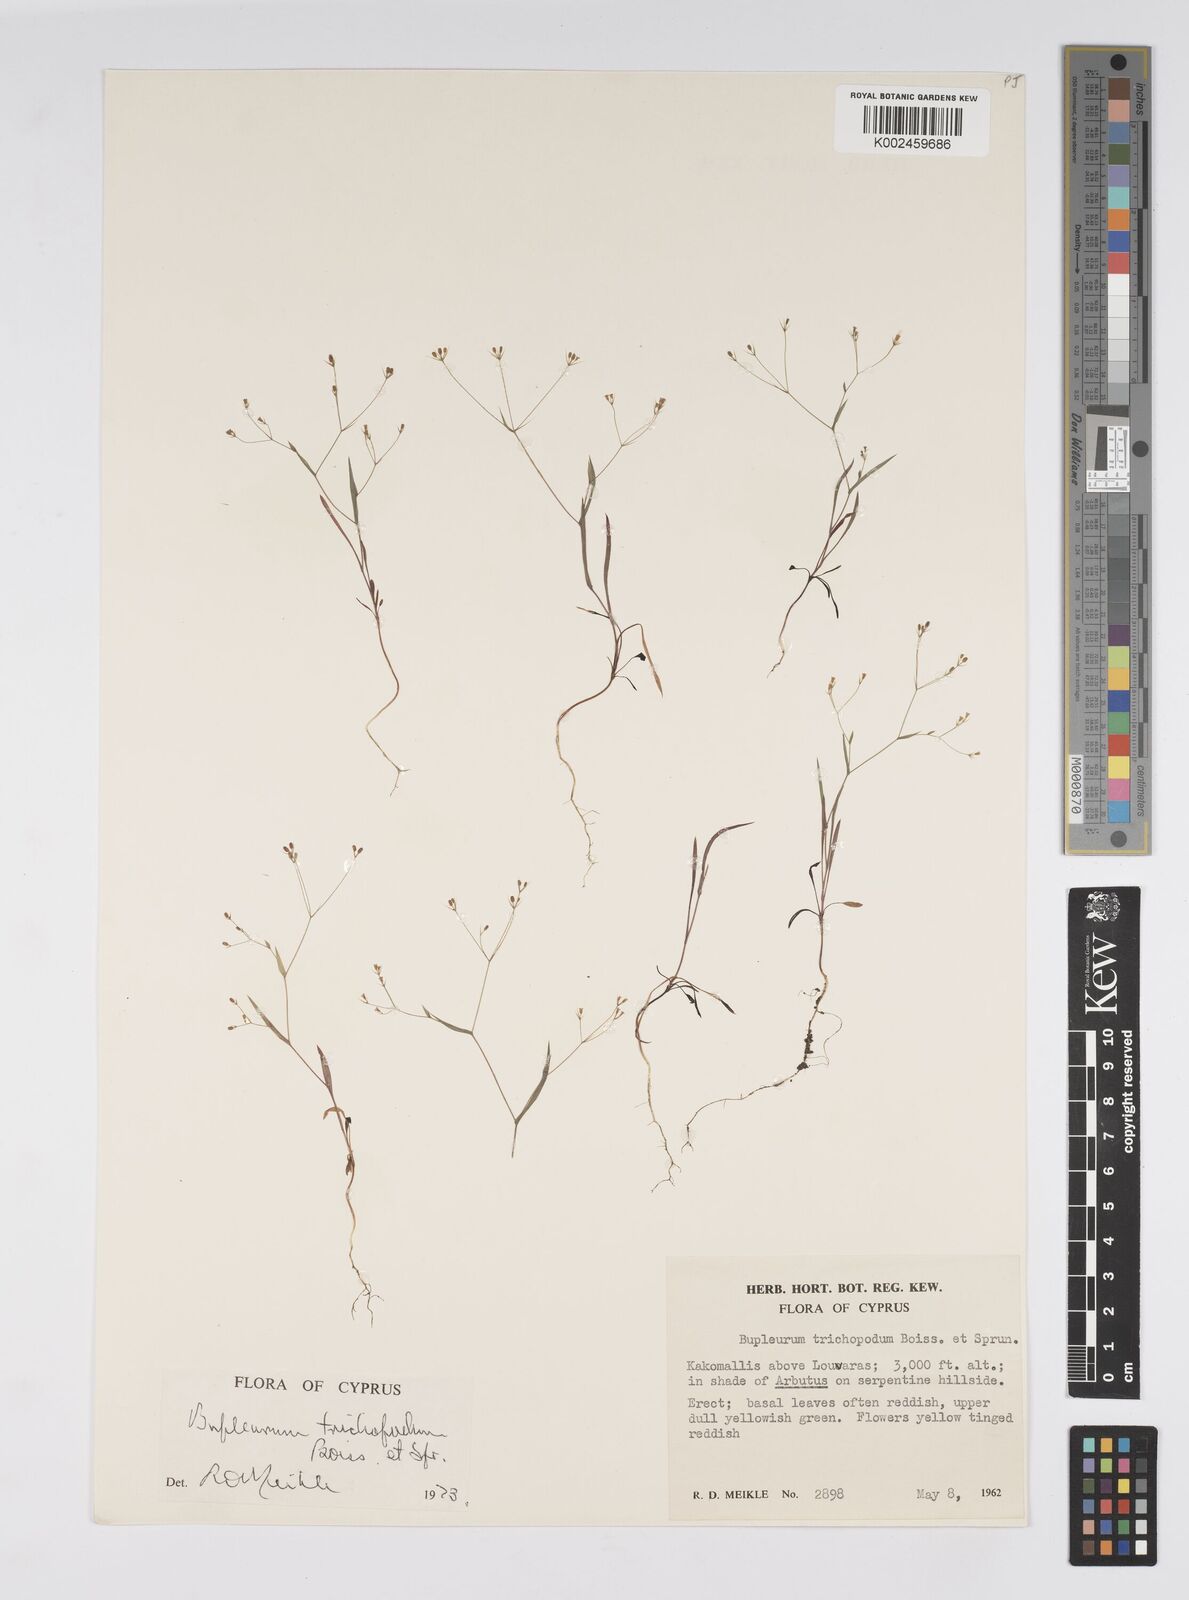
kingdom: Plantae
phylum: Tracheophyta
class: Magnoliopsida
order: Apiales
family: Apiaceae
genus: Bupleurum
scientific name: Bupleurum trichopodum
